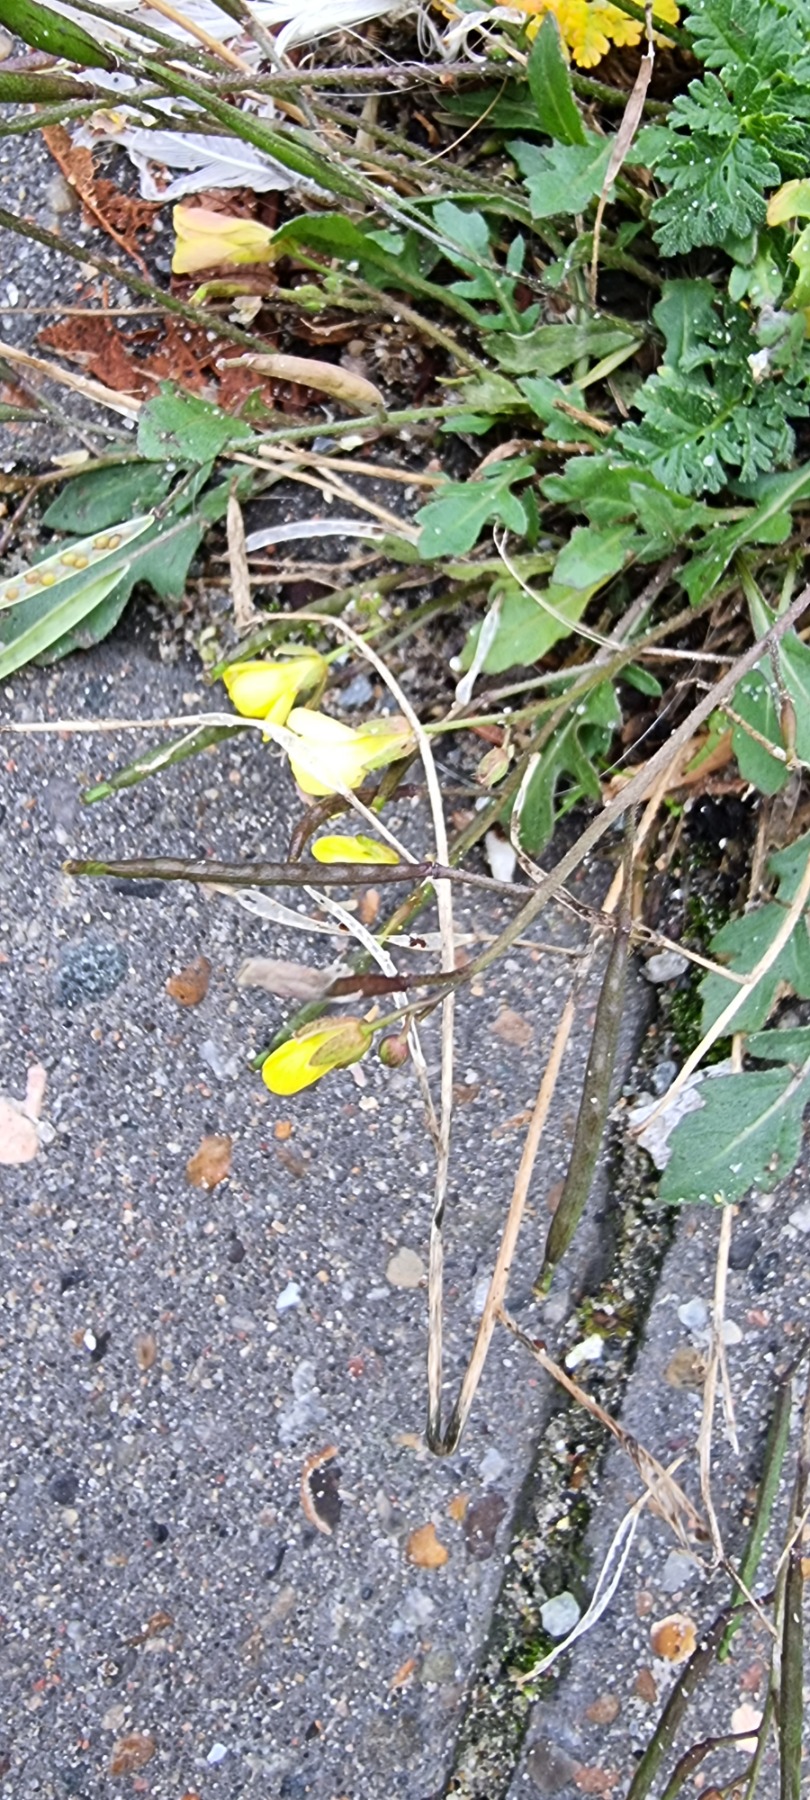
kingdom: Plantae
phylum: Tracheophyta
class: Magnoliopsida
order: Brassicales
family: Brassicaceae
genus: Diplotaxis
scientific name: Diplotaxis muralis
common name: Mursennep
